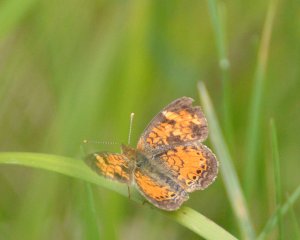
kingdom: Animalia
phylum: Arthropoda
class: Insecta
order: Lepidoptera
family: Nymphalidae
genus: Phyciodes
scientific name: Phyciodes tharos
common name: Northern Crescent
